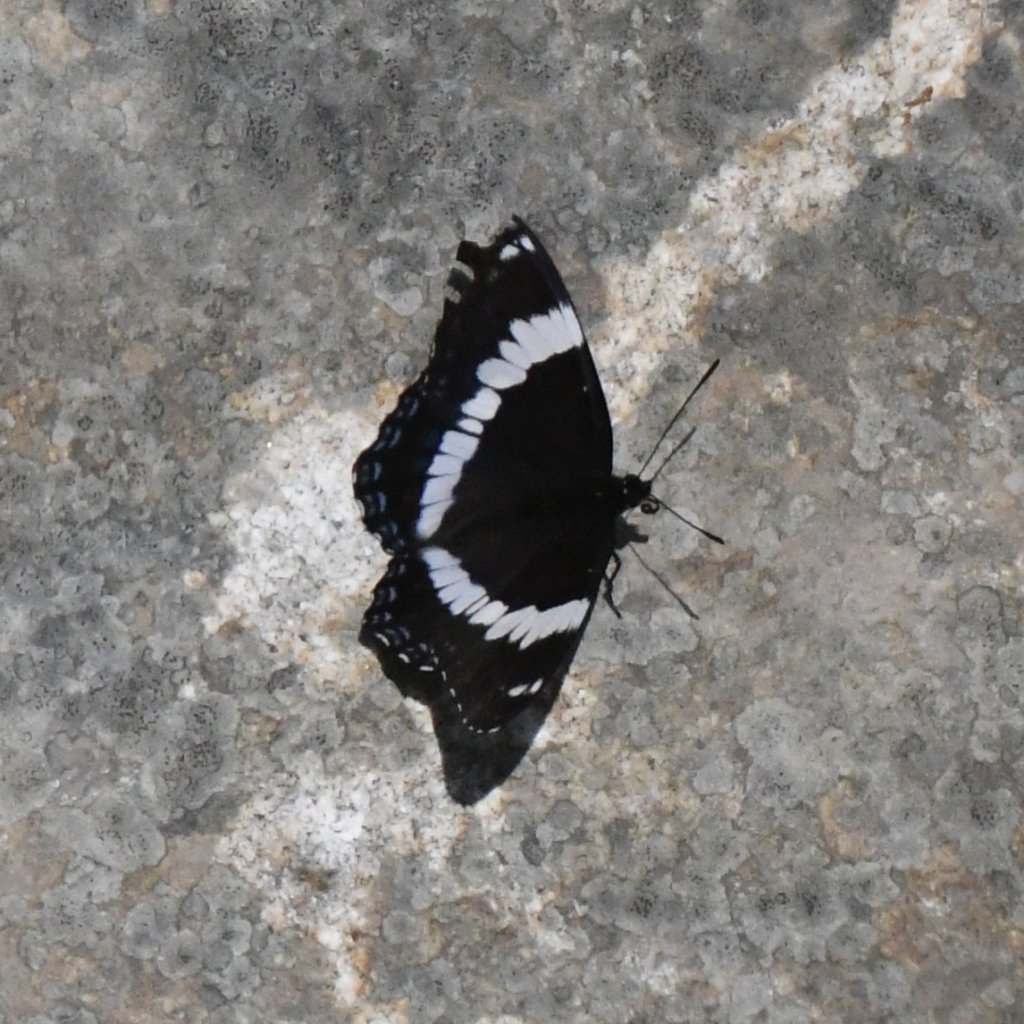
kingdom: Animalia
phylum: Arthropoda
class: Insecta
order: Lepidoptera
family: Nymphalidae
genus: Limenitis
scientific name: Limenitis arthemis
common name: Red-spotted Admiral
